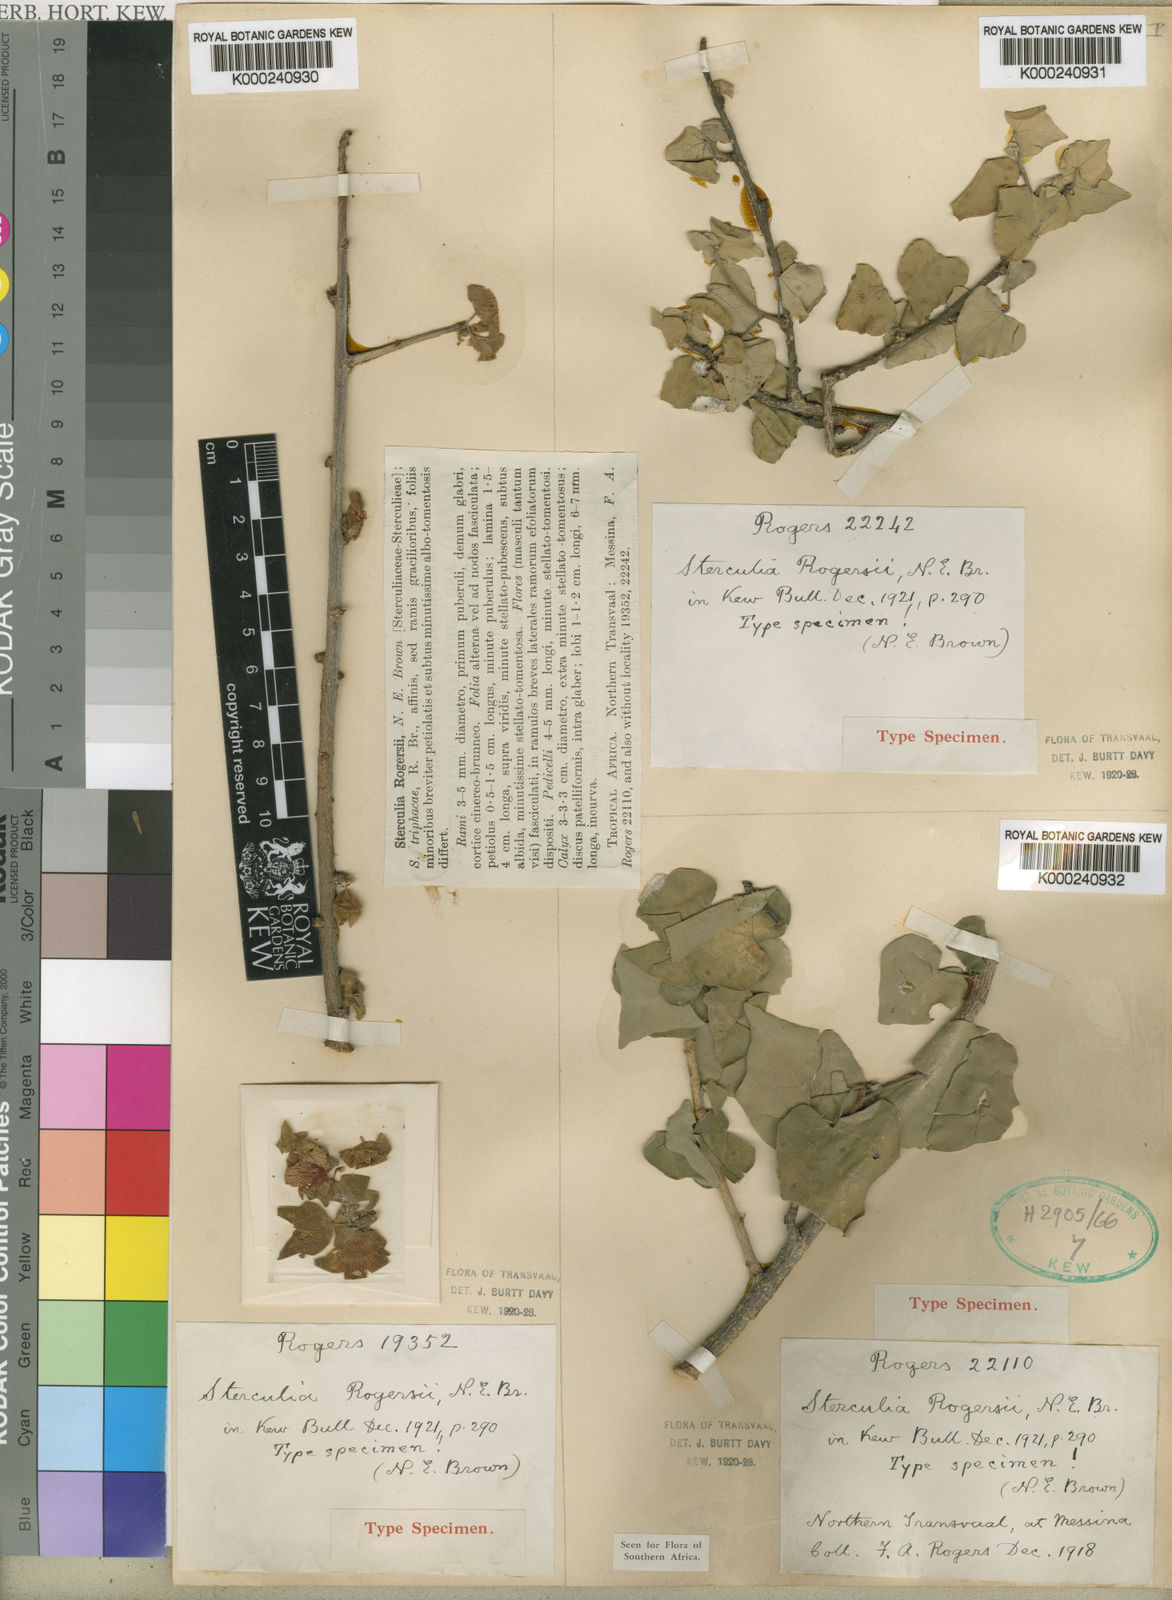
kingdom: Plantae
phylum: Tracheophyta
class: Magnoliopsida
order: Malvales
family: Malvaceae
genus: Sterculia
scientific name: Sterculia rogersii
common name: Star-chestnut
